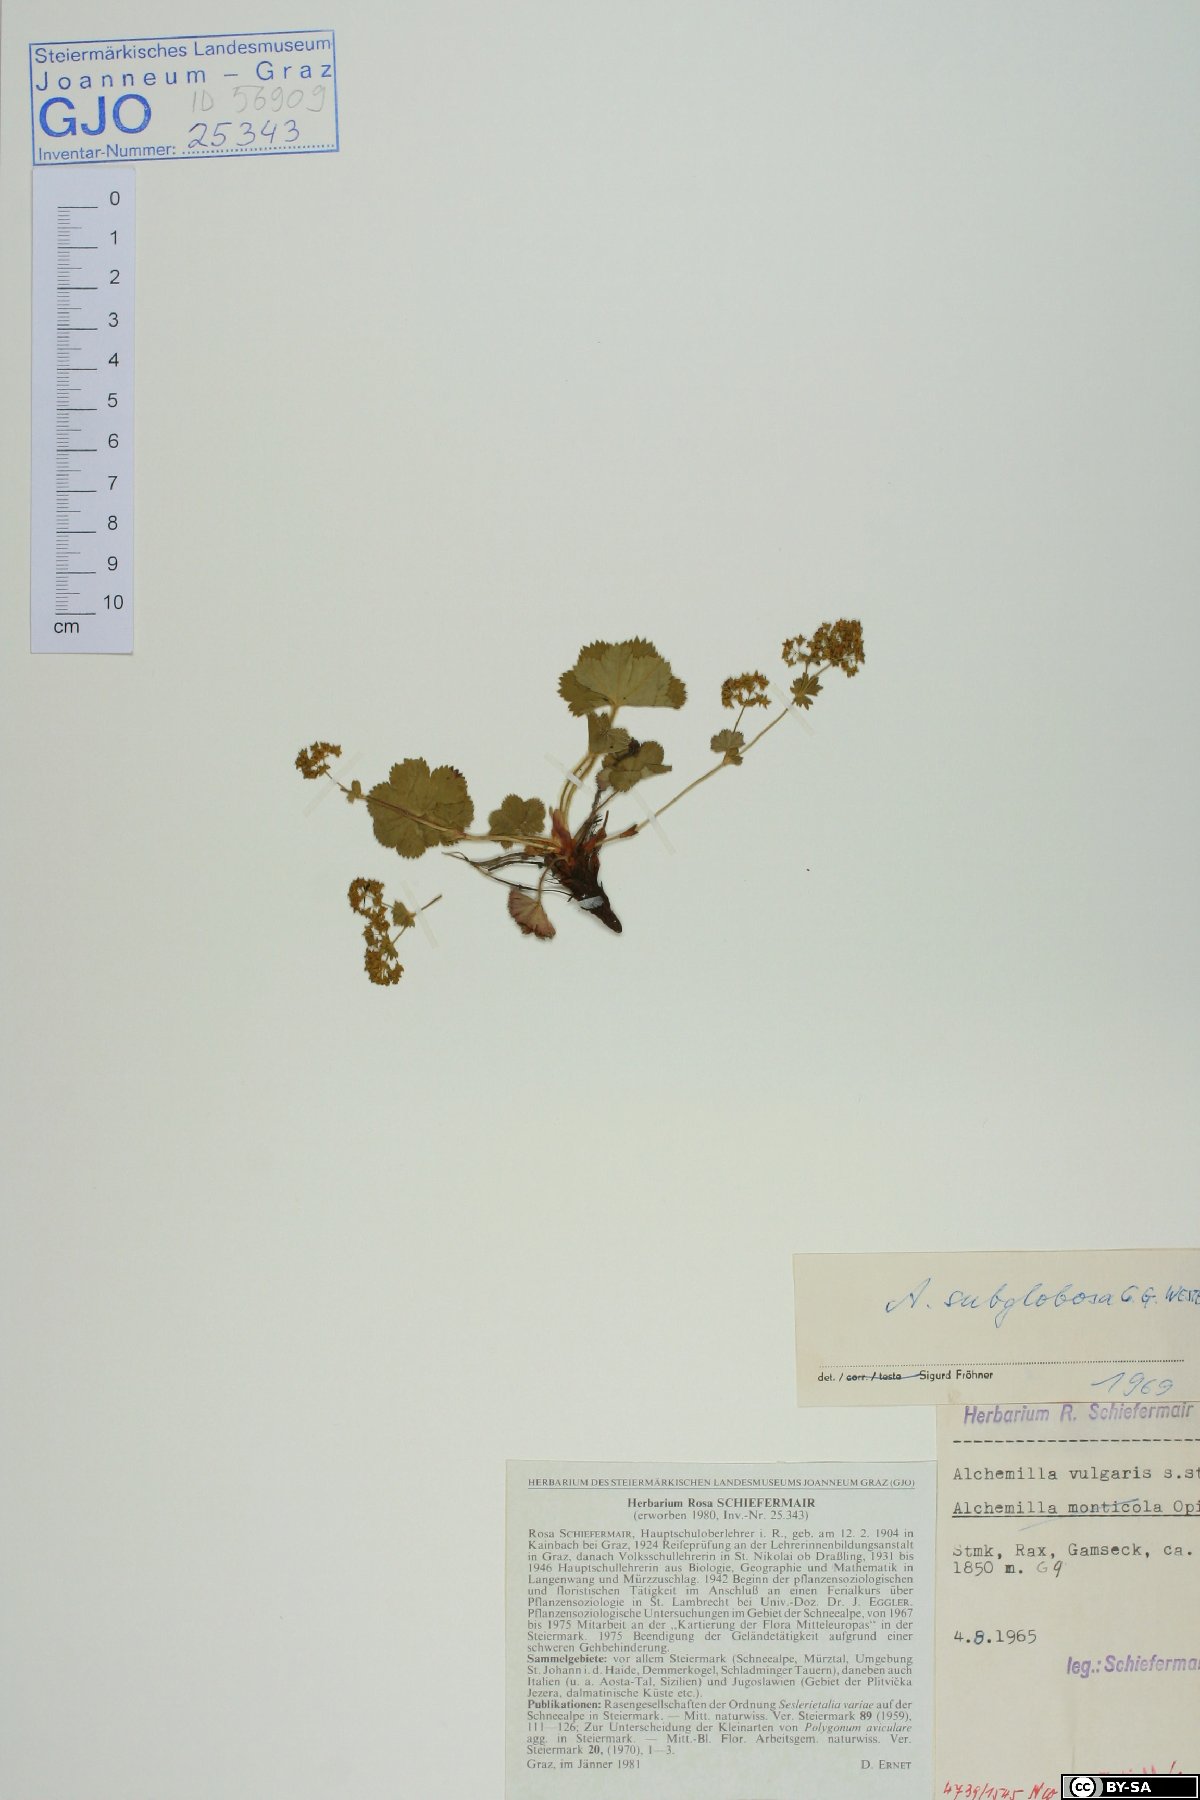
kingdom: Plantae
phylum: Tracheophyta
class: Magnoliopsida
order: Rosales
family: Rosaceae
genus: Alchemilla
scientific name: Alchemilla subglobosa
